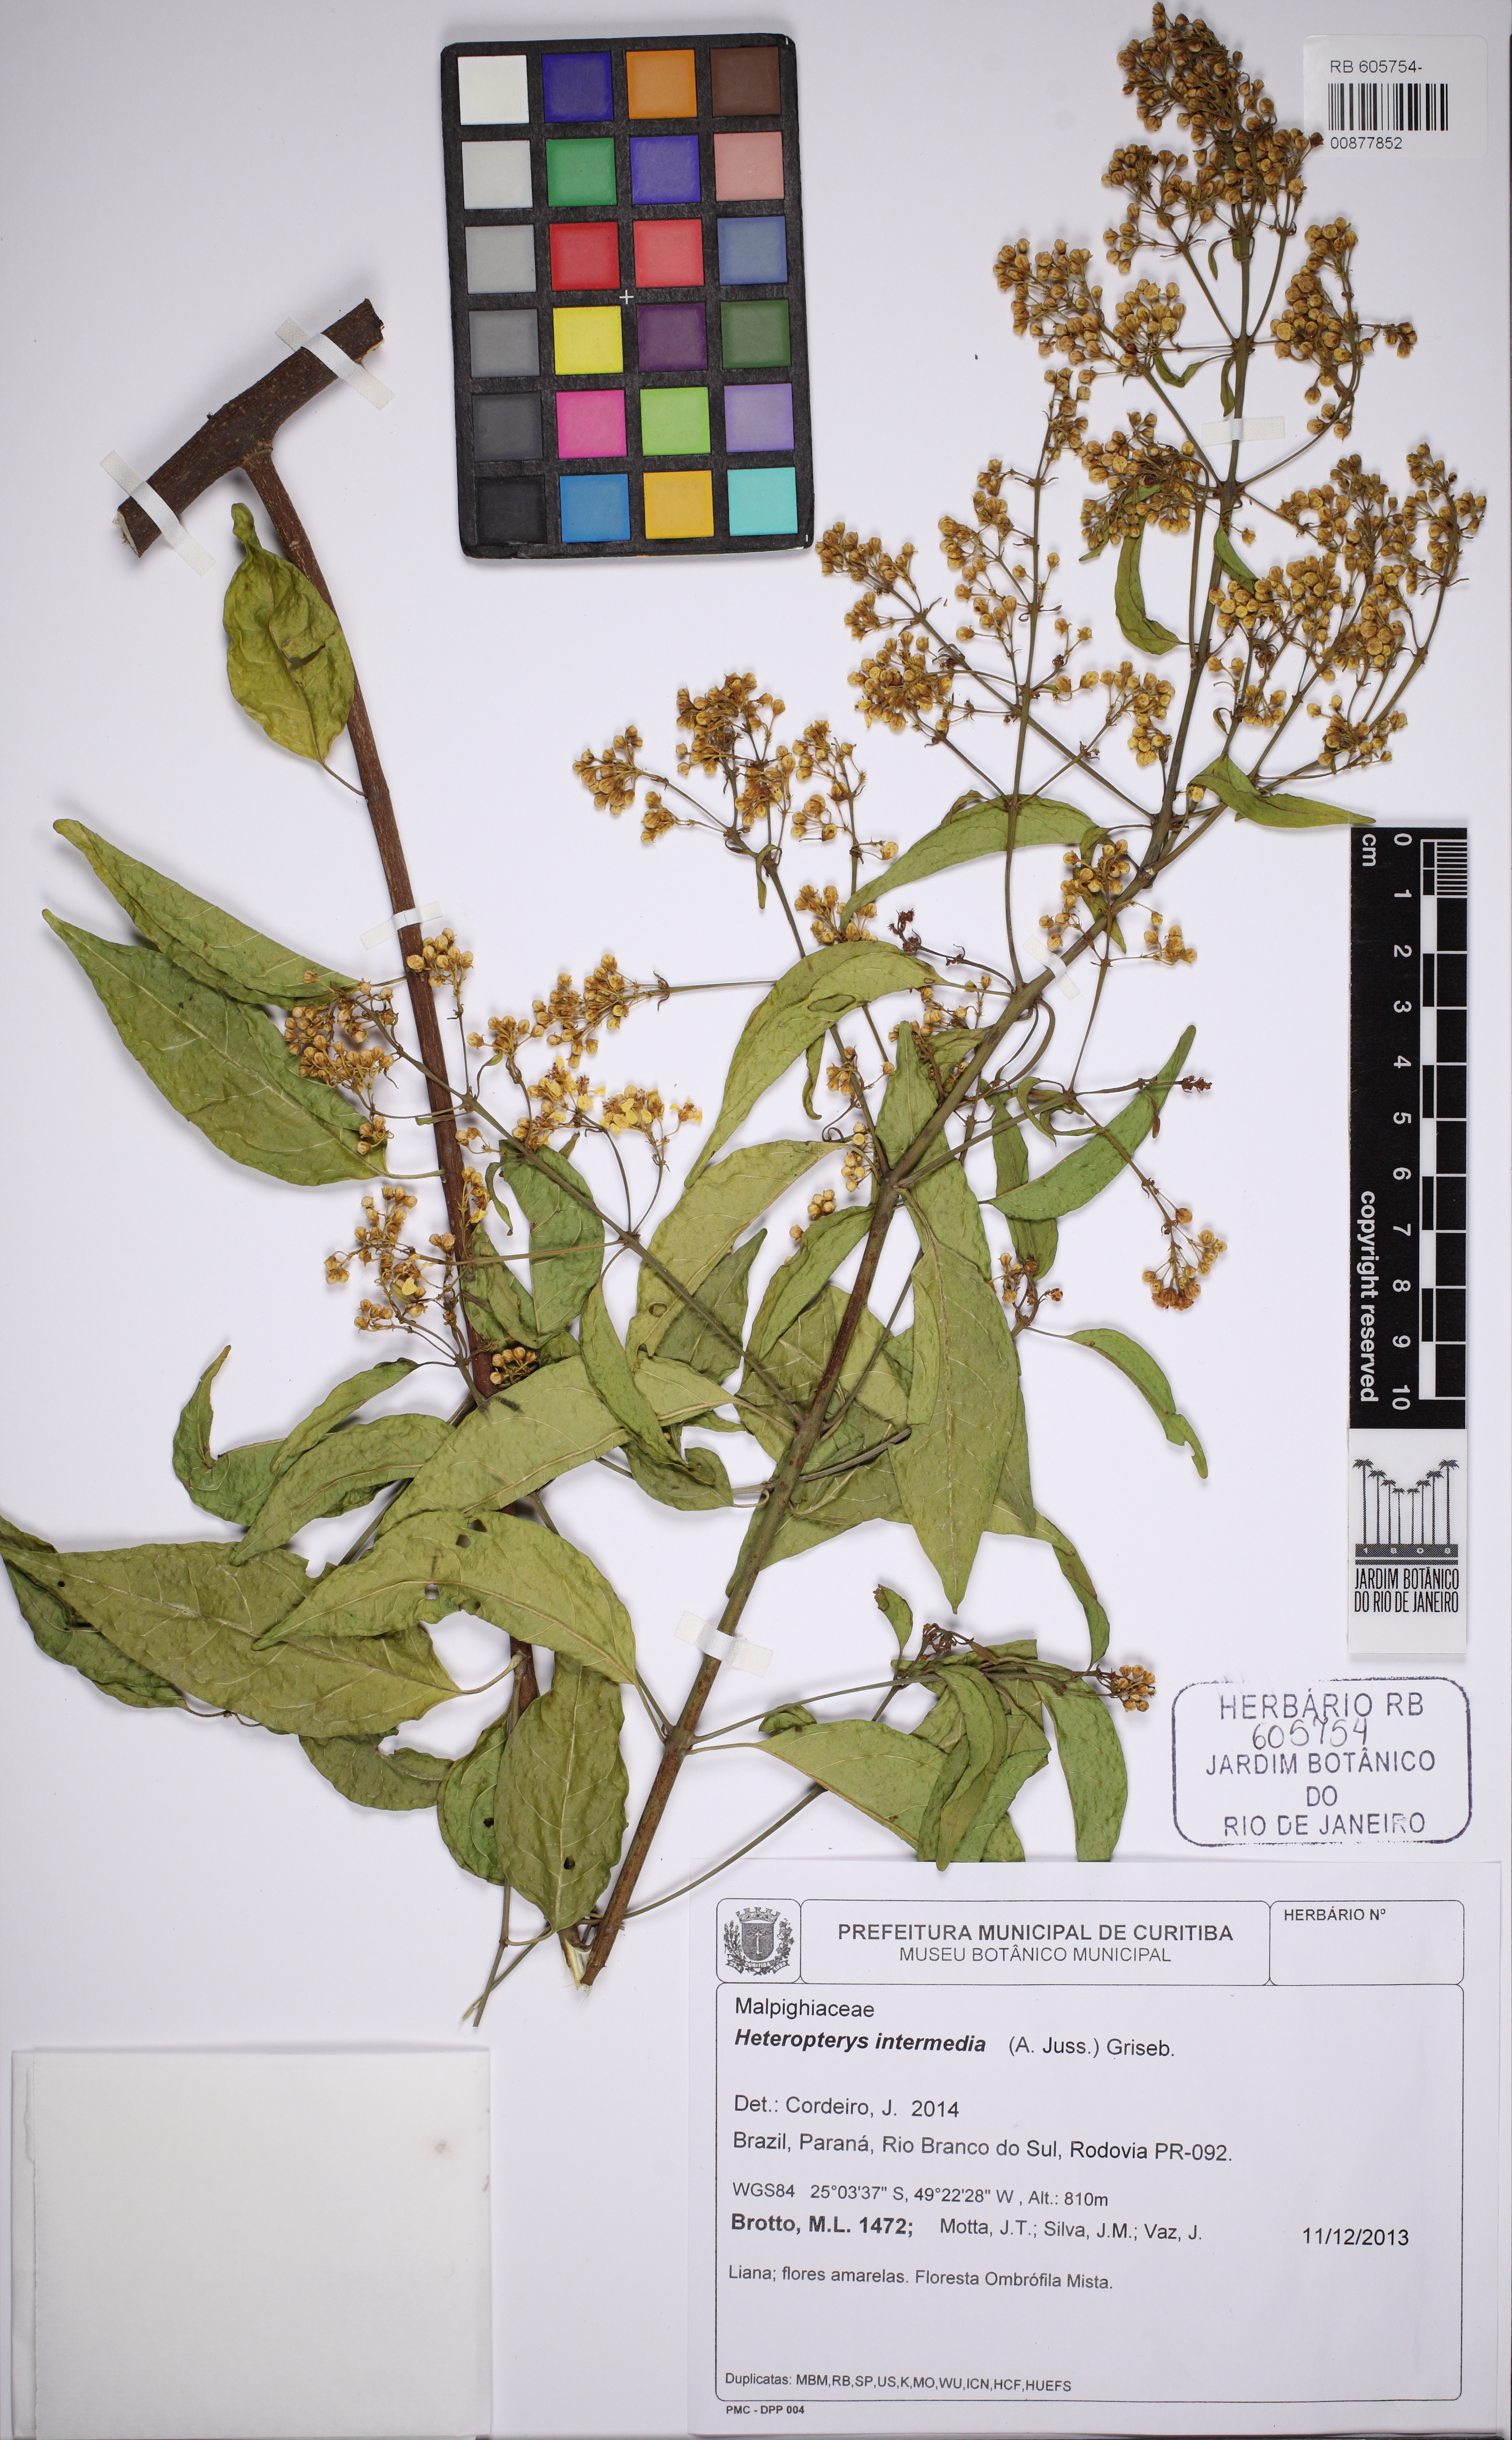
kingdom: Plantae
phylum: Tracheophyta
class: Magnoliopsida
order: Malpighiales
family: Malpighiaceae
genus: Heteropterys
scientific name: Heteropterys intermedia
